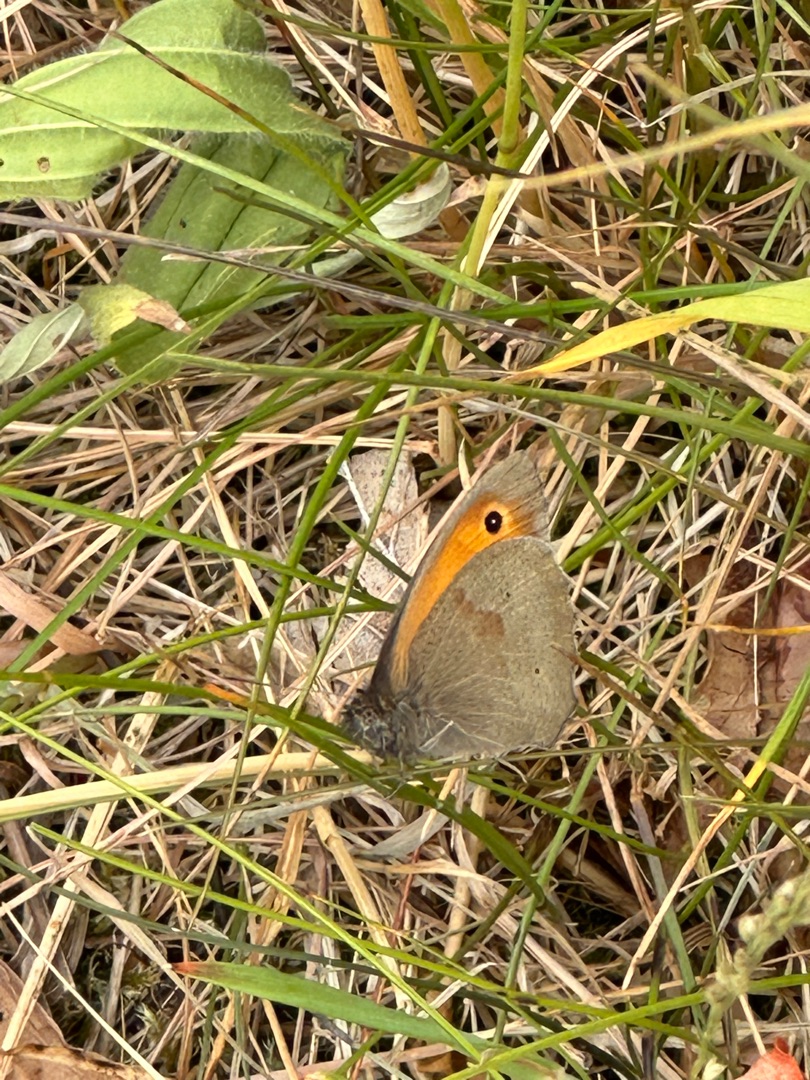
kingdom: Animalia
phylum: Arthropoda
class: Insecta
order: Lepidoptera
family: Nymphalidae
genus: Maniola
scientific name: Maniola jurtina
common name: Græsrandøje
